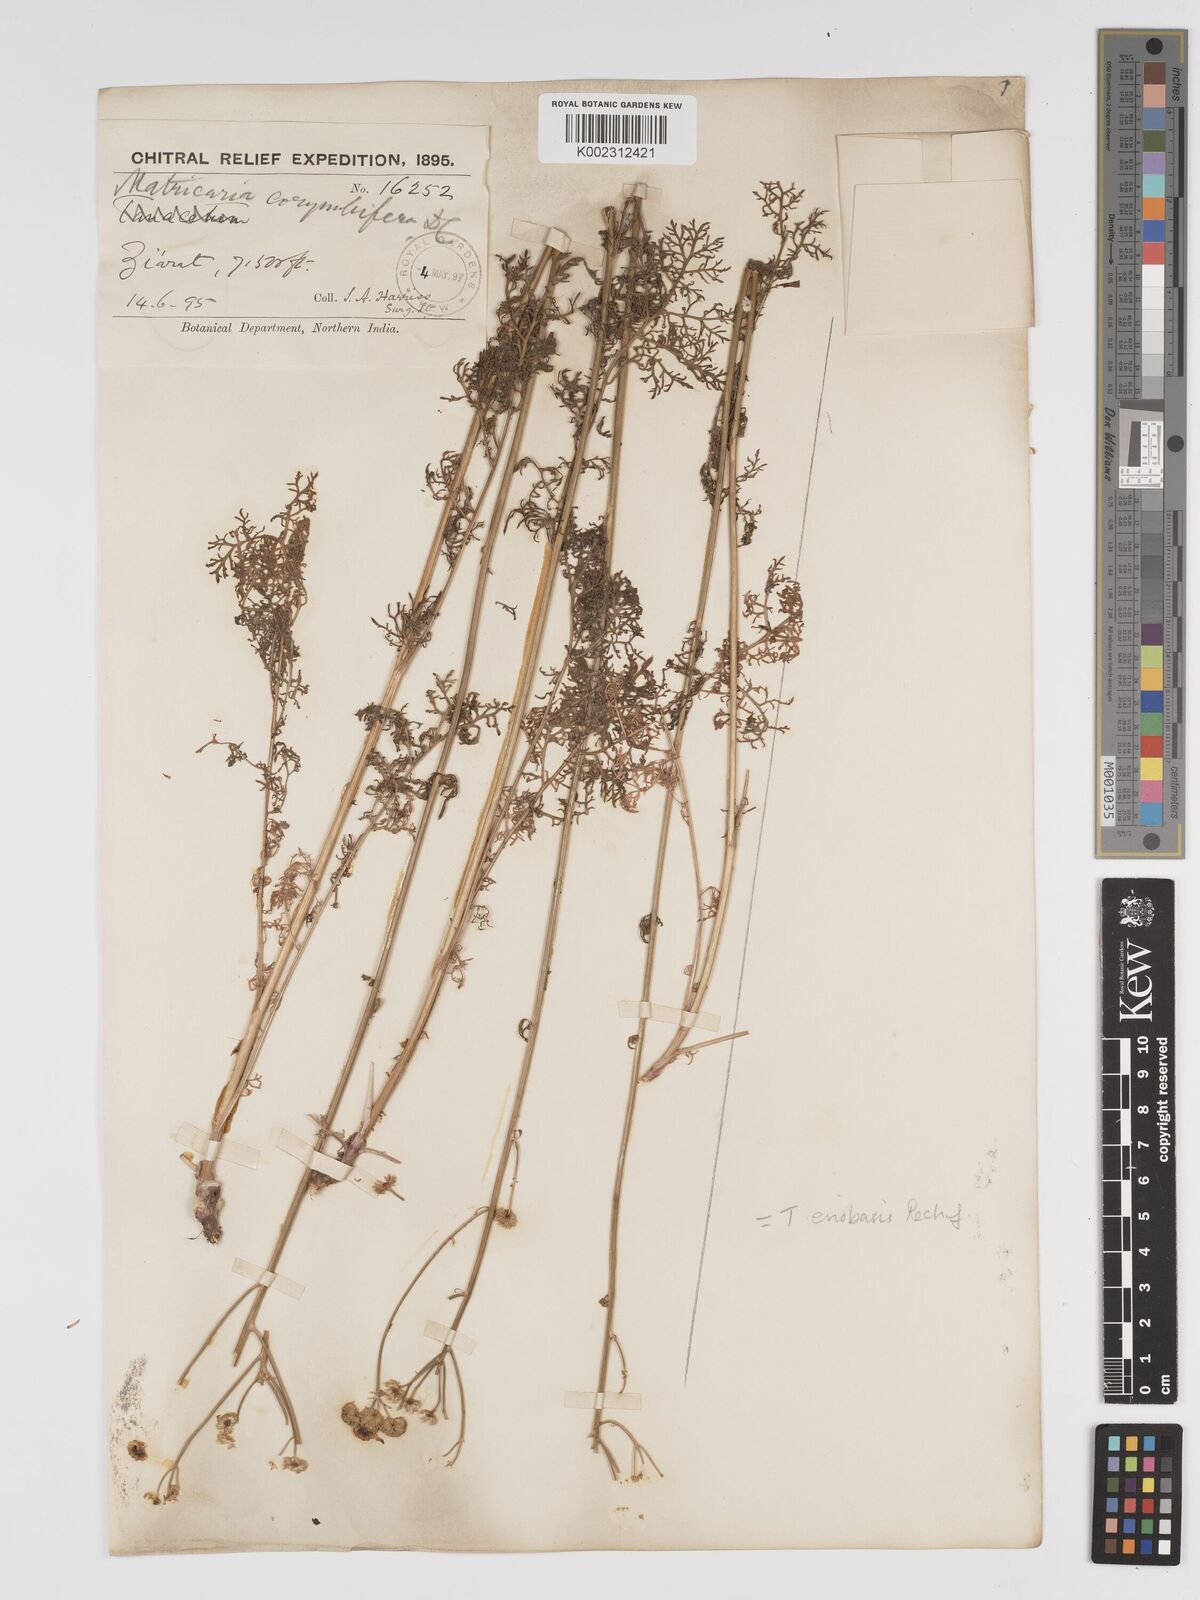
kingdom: Plantae
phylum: Tracheophyta
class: Magnoliopsida
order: Asterales
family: Asteraceae
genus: Tanacetum
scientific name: Tanacetum
